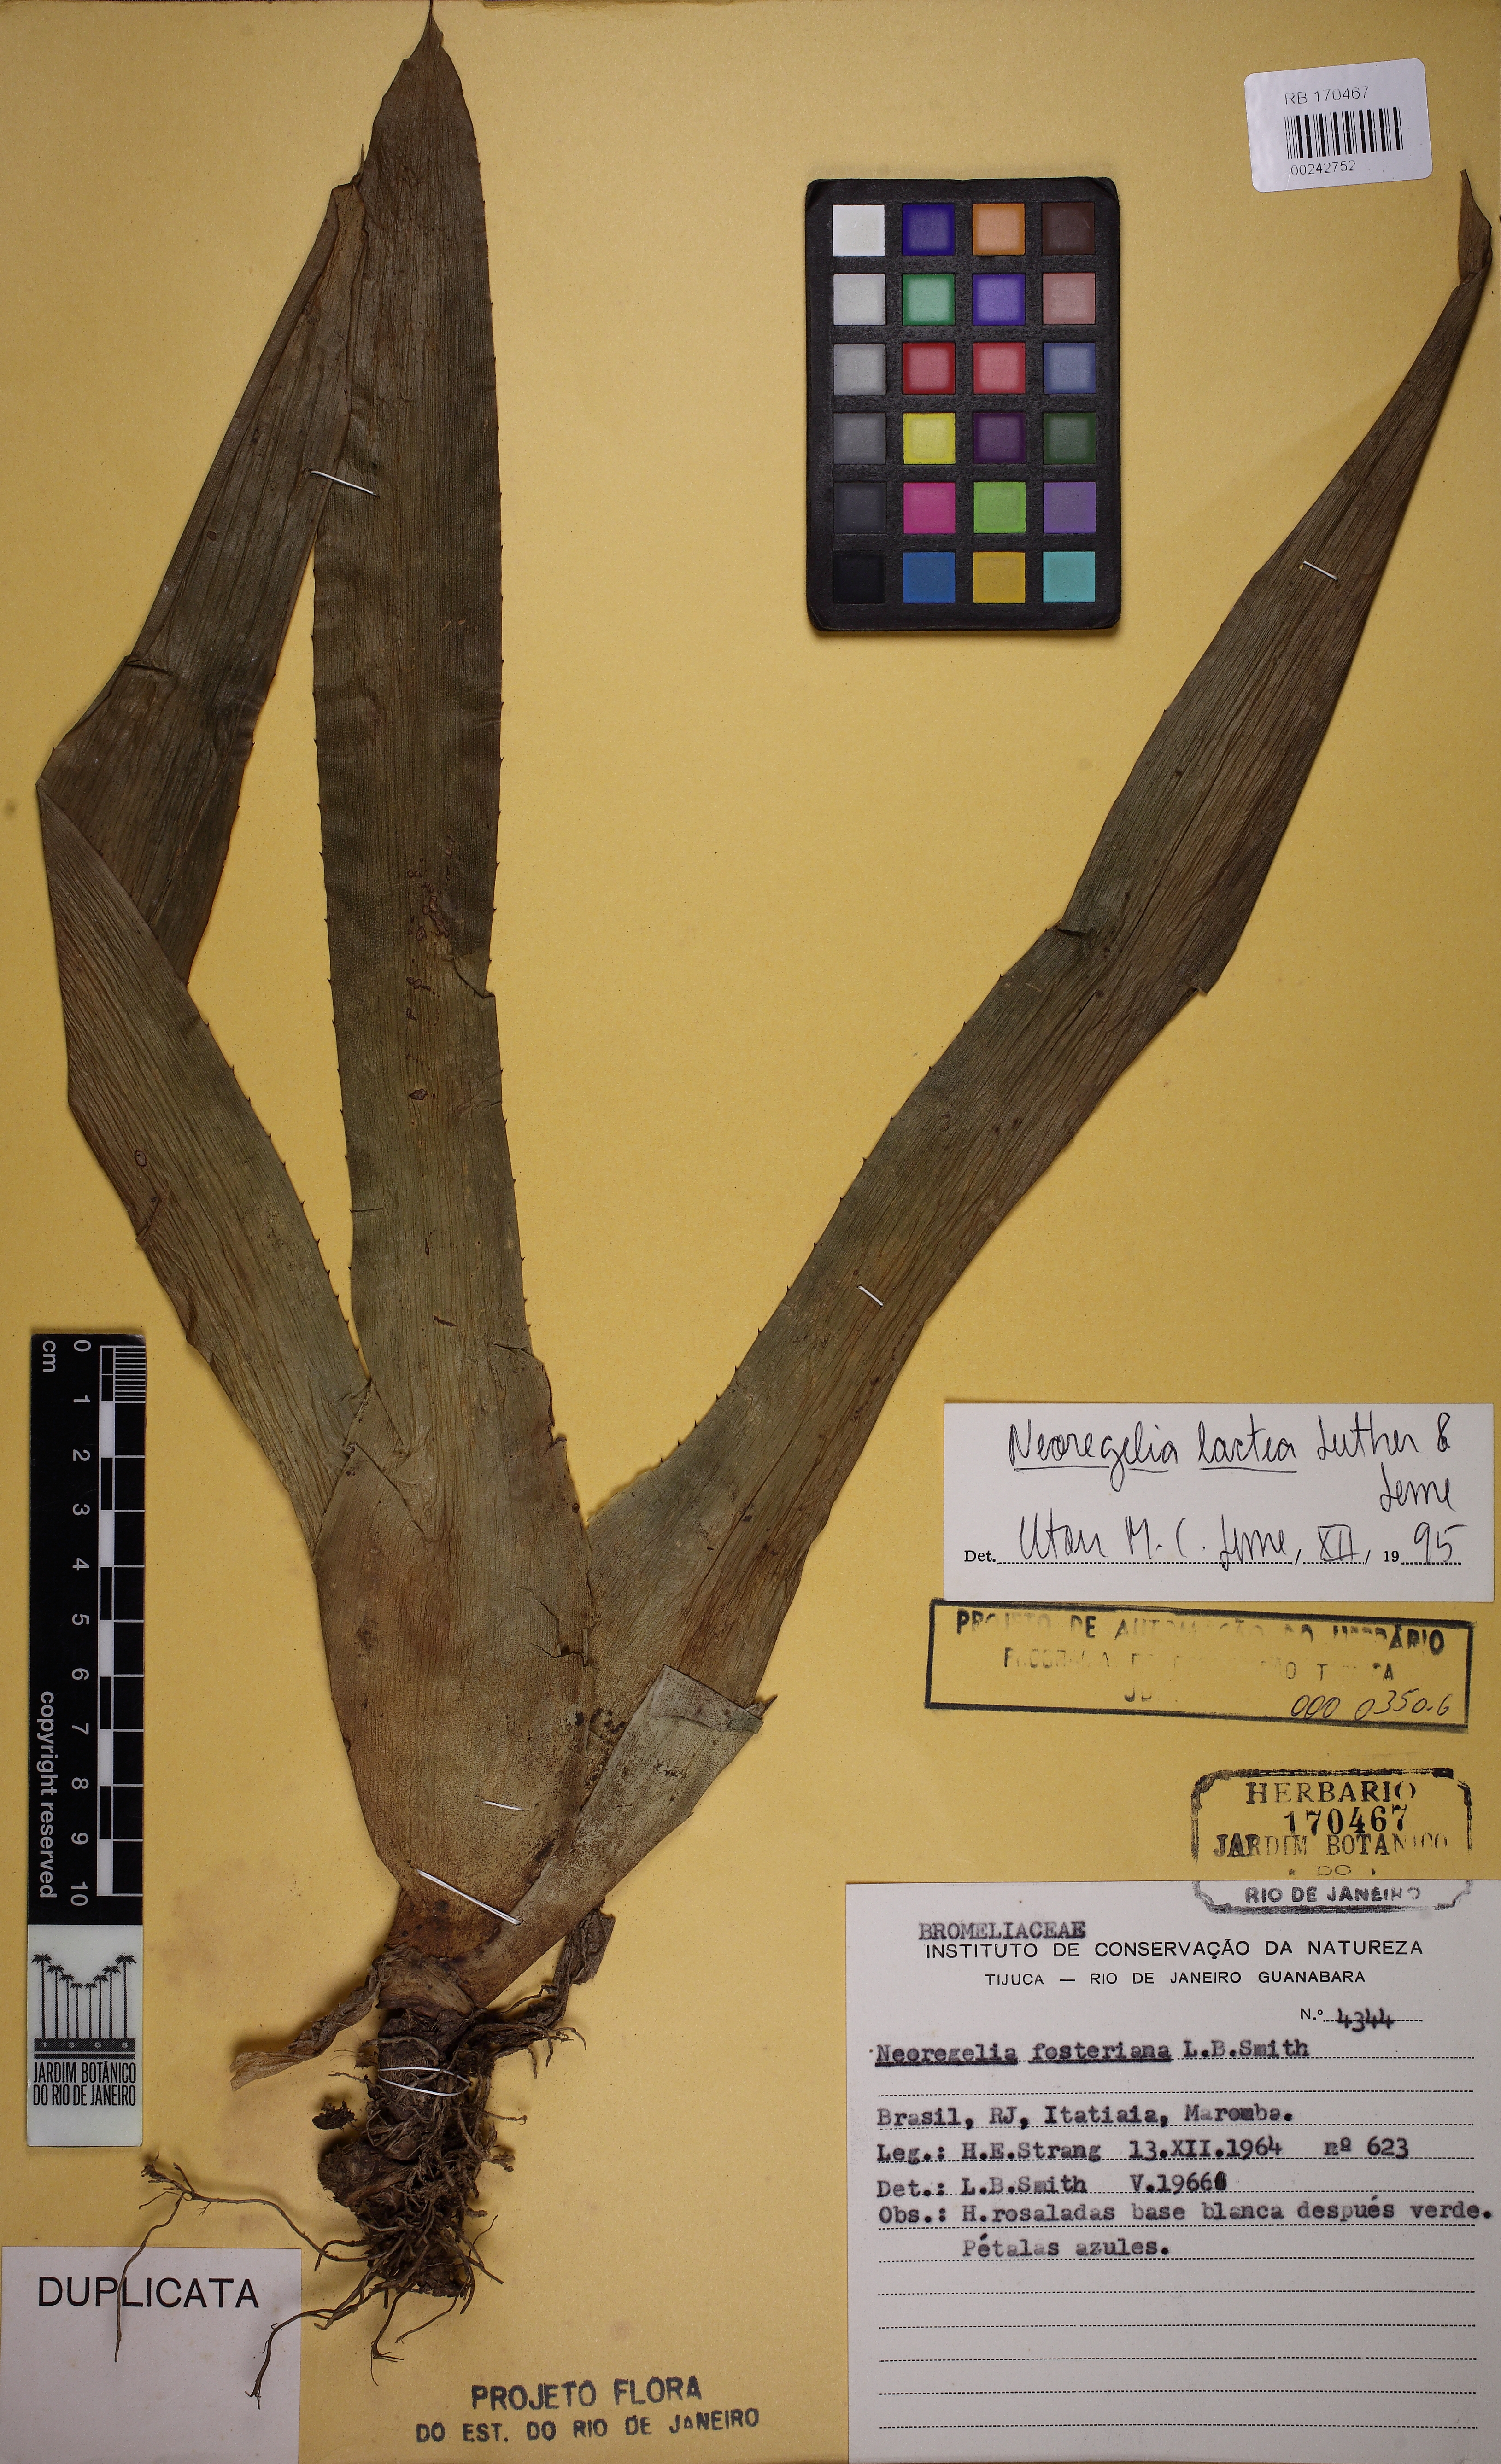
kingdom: Plantae
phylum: Tracheophyta
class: Liliopsida
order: Poales
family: Bromeliaceae
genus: Neoregelia
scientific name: Neoregelia lactea
